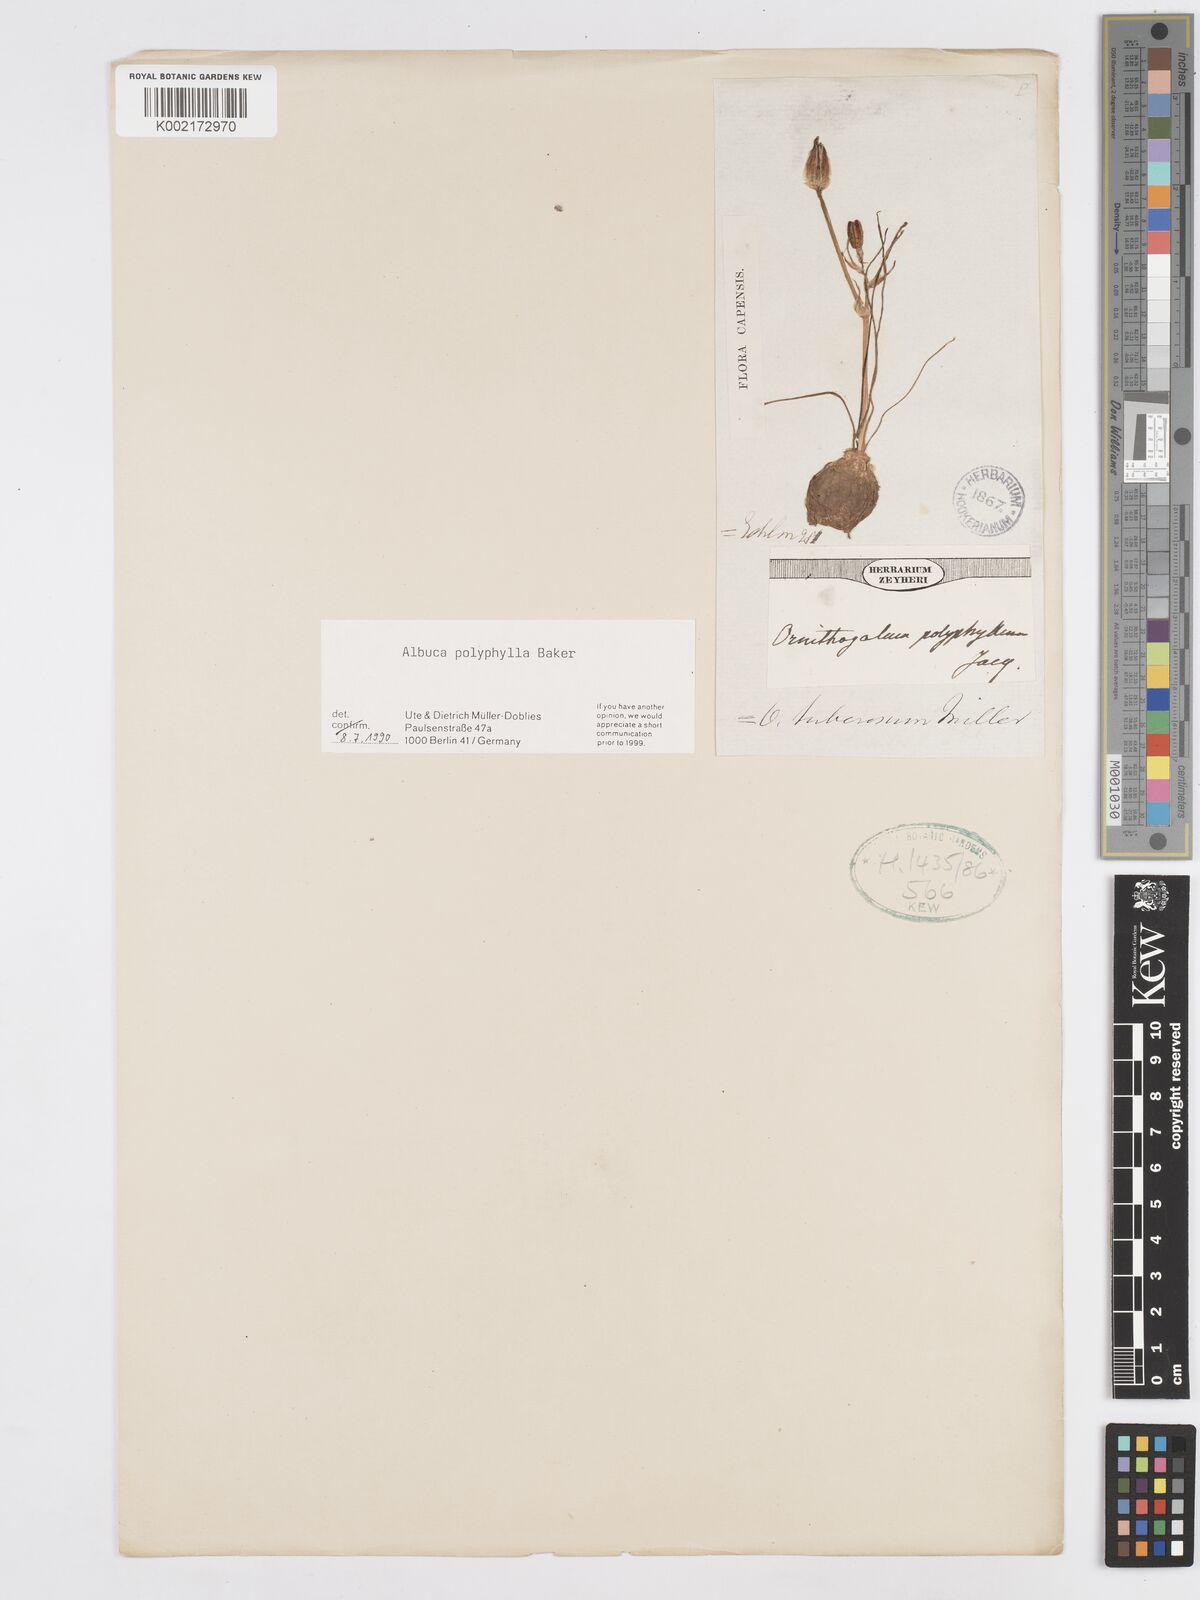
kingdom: Plantae
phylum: Tracheophyta
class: Liliopsida
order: Asparagales
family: Asparagaceae
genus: Albuca
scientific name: Albuca polyphylla
